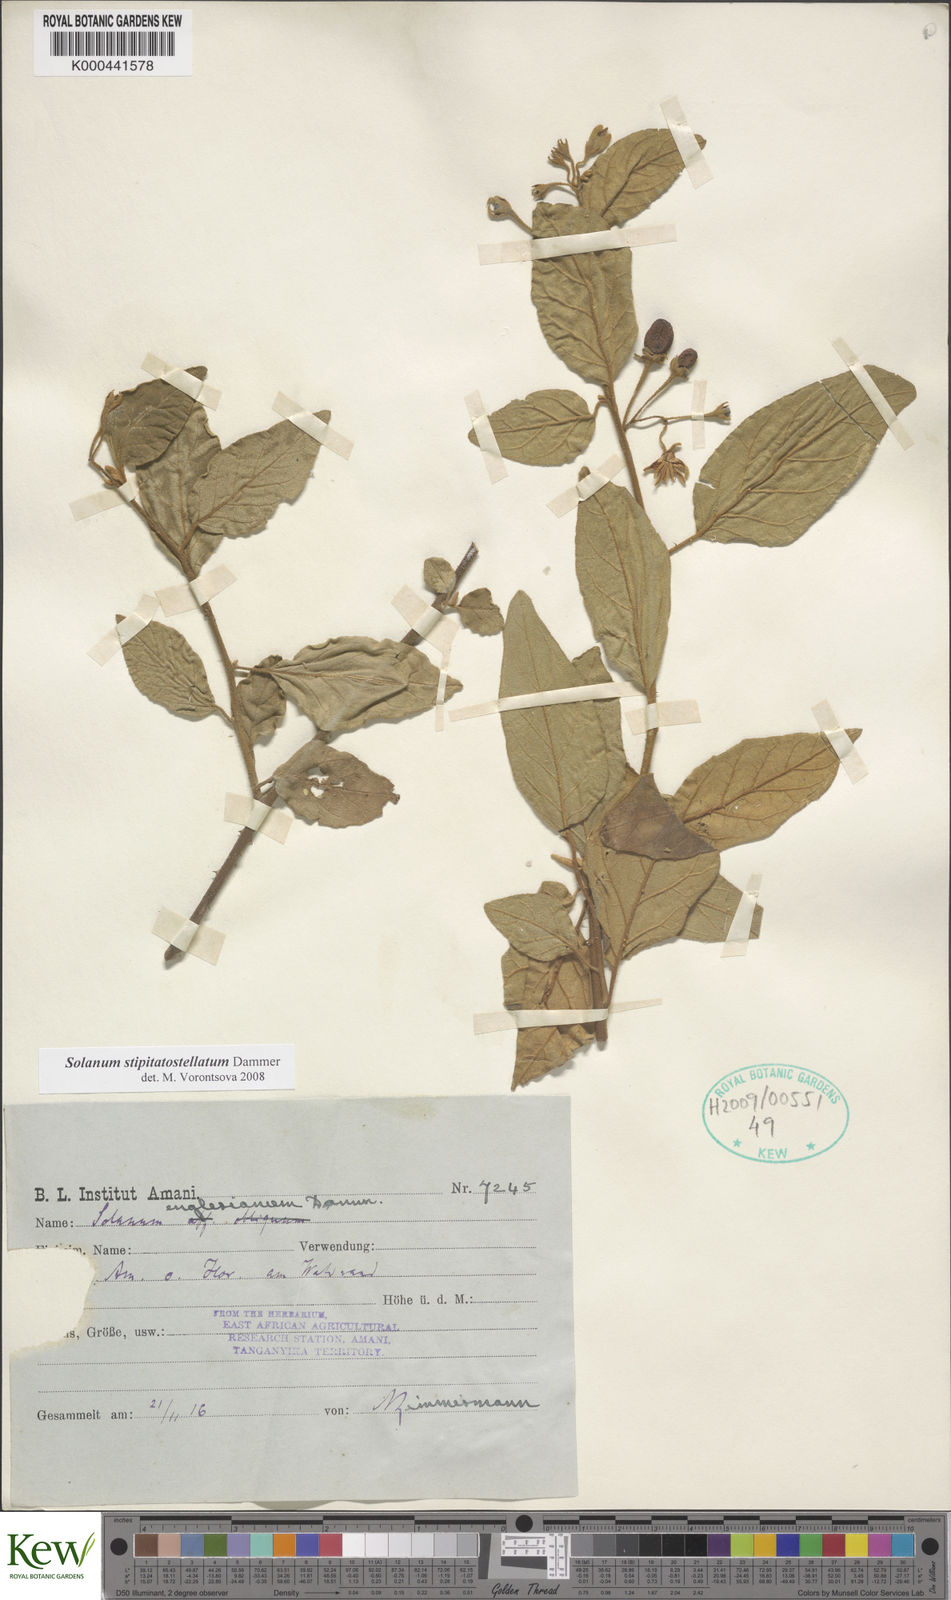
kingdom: Plantae
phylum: Tracheophyta
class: Magnoliopsida
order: Solanales
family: Solanaceae
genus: Solanum
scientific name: Solanum stipitatostellatum
